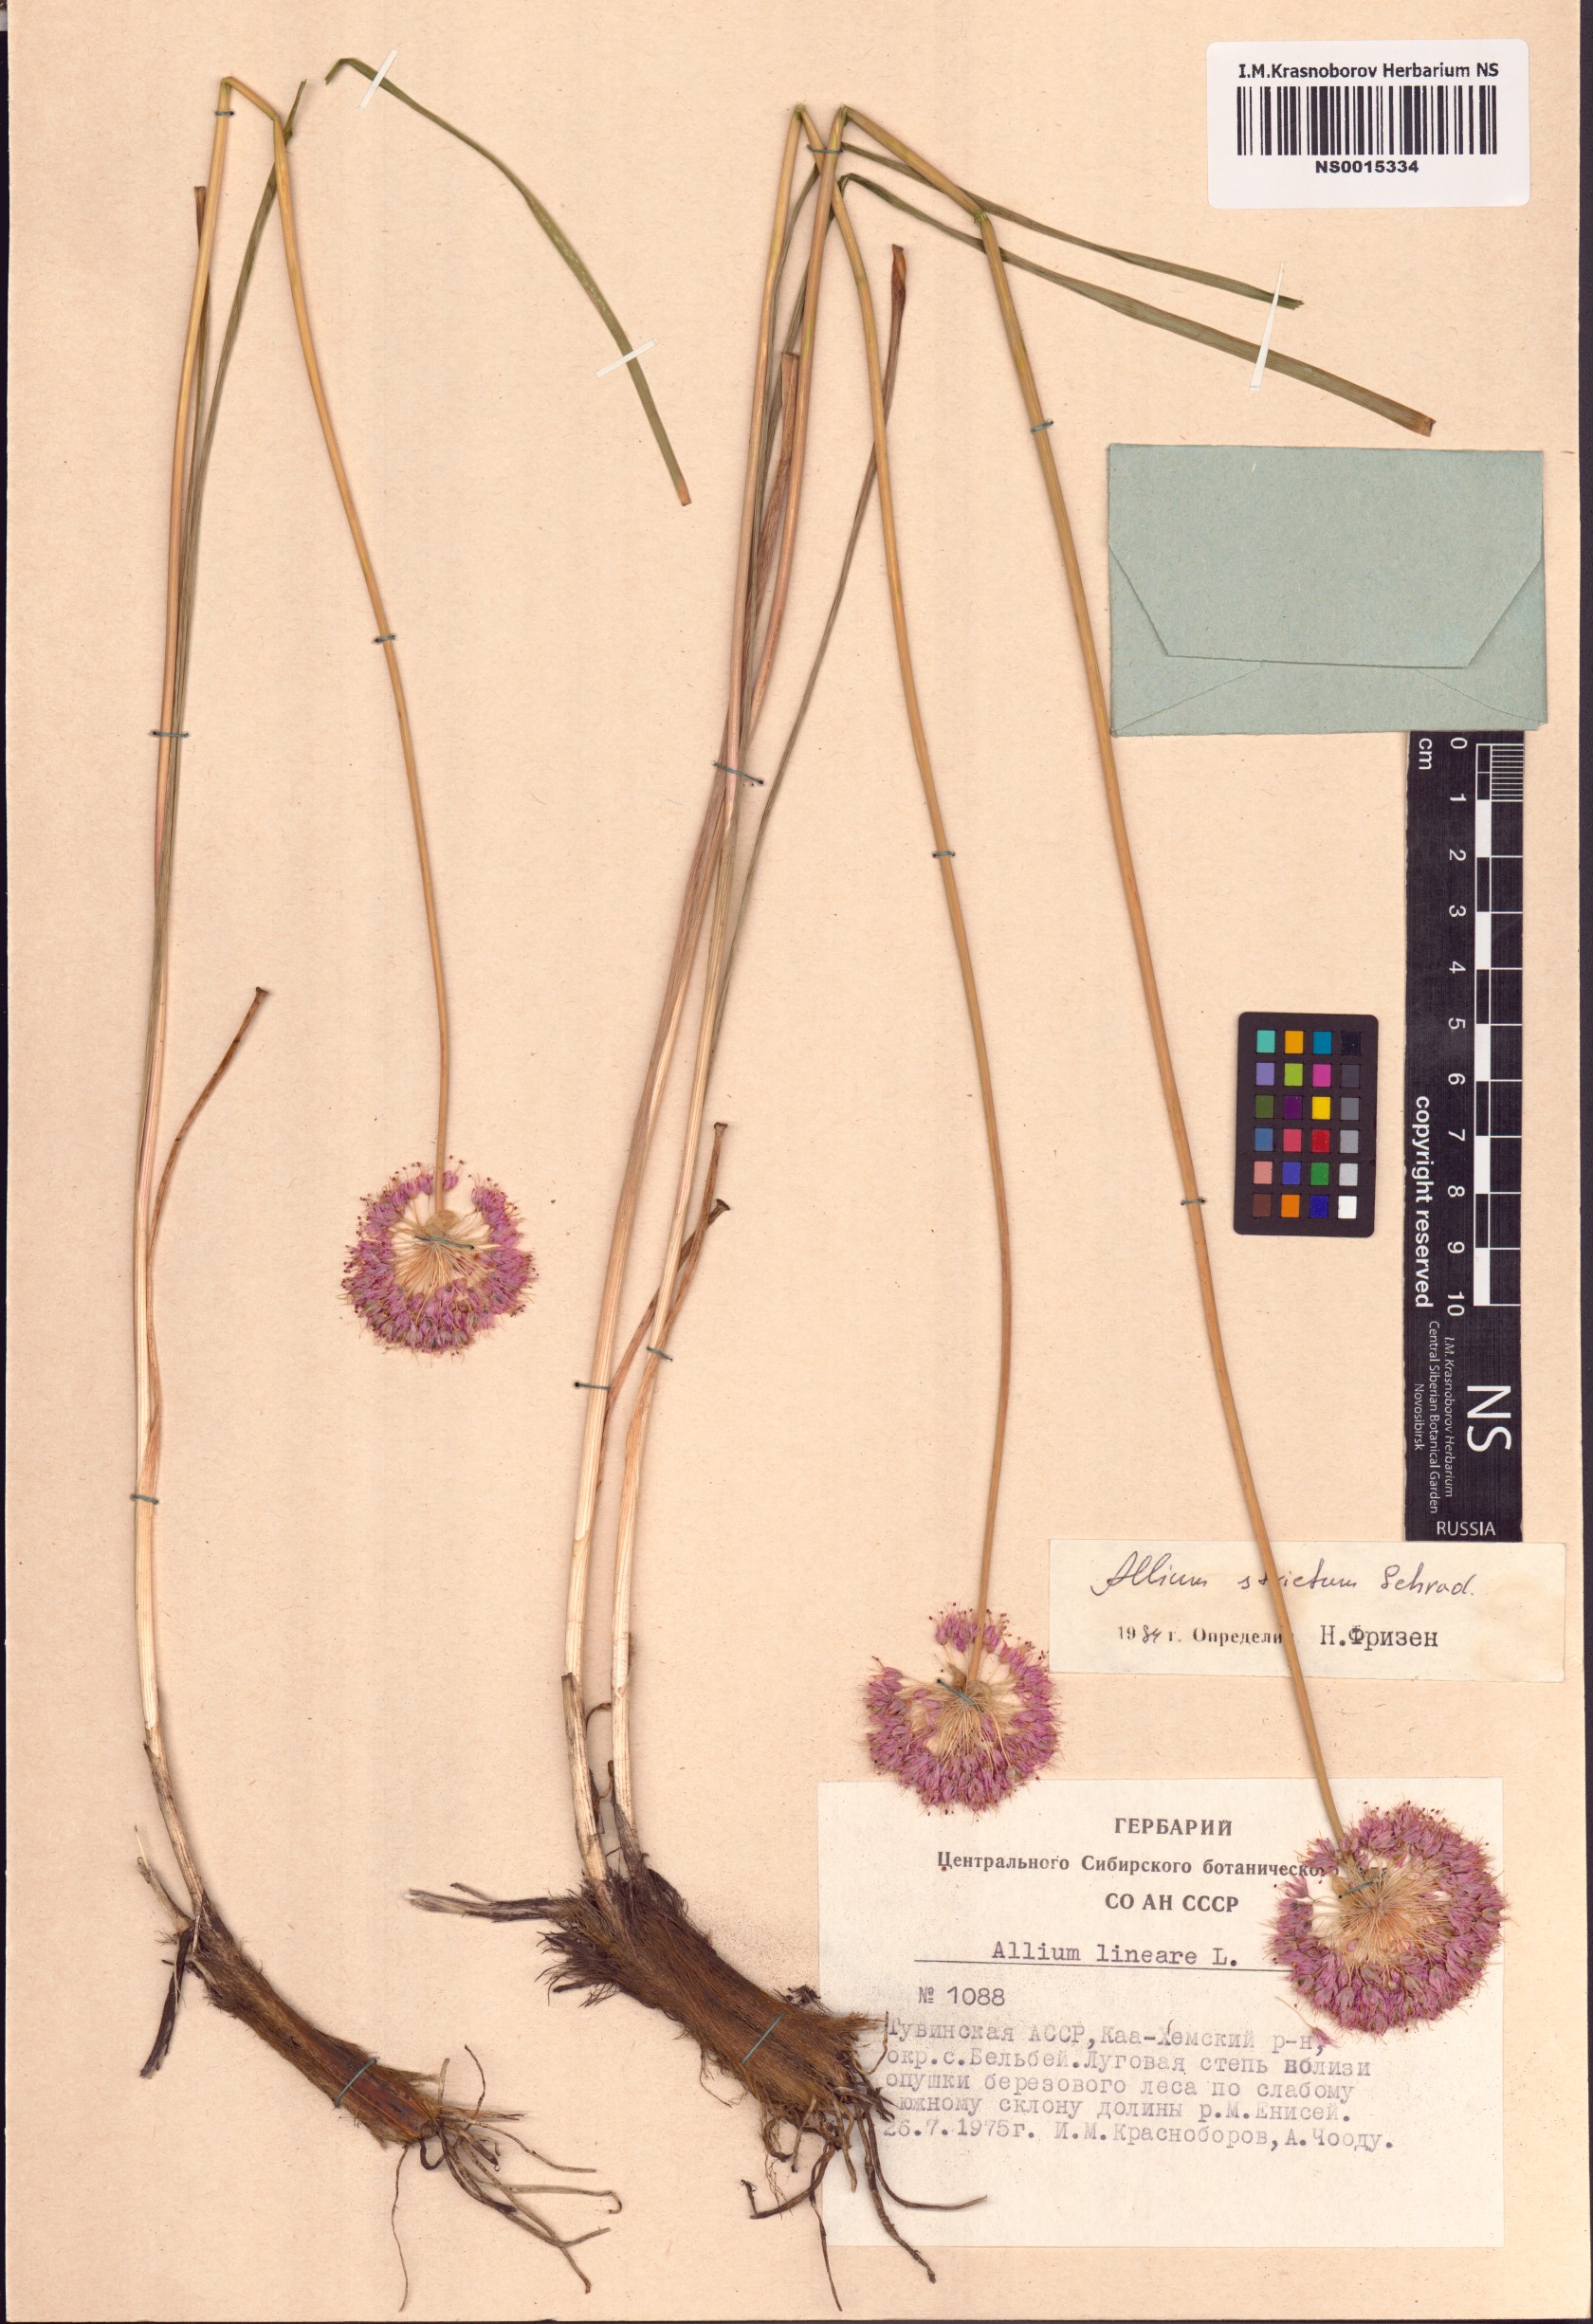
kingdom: Plantae
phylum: Tracheophyta
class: Liliopsida
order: Asparagales
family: Amaryllidaceae
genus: Allium
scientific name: Allium strictum
